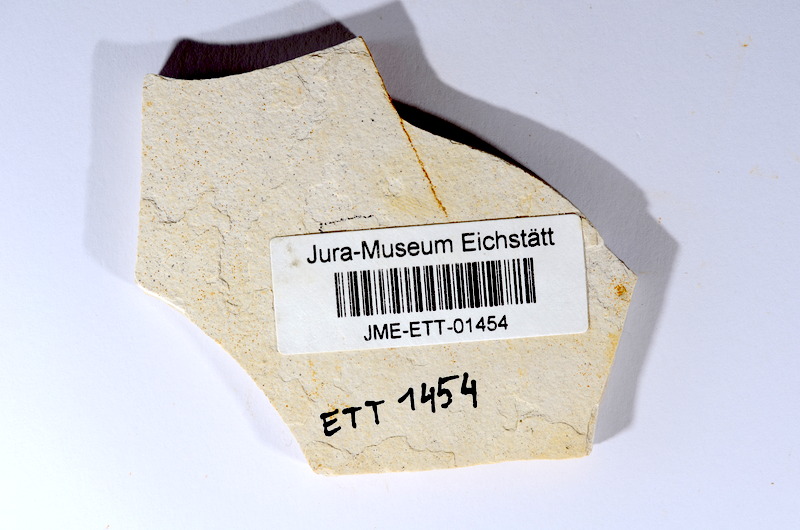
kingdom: Animalia
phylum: Chordata
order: Salmoniformes
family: Orthogonikleithridae
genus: Orthogonikleithrus
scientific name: Orthogonikleithrus hoelli
